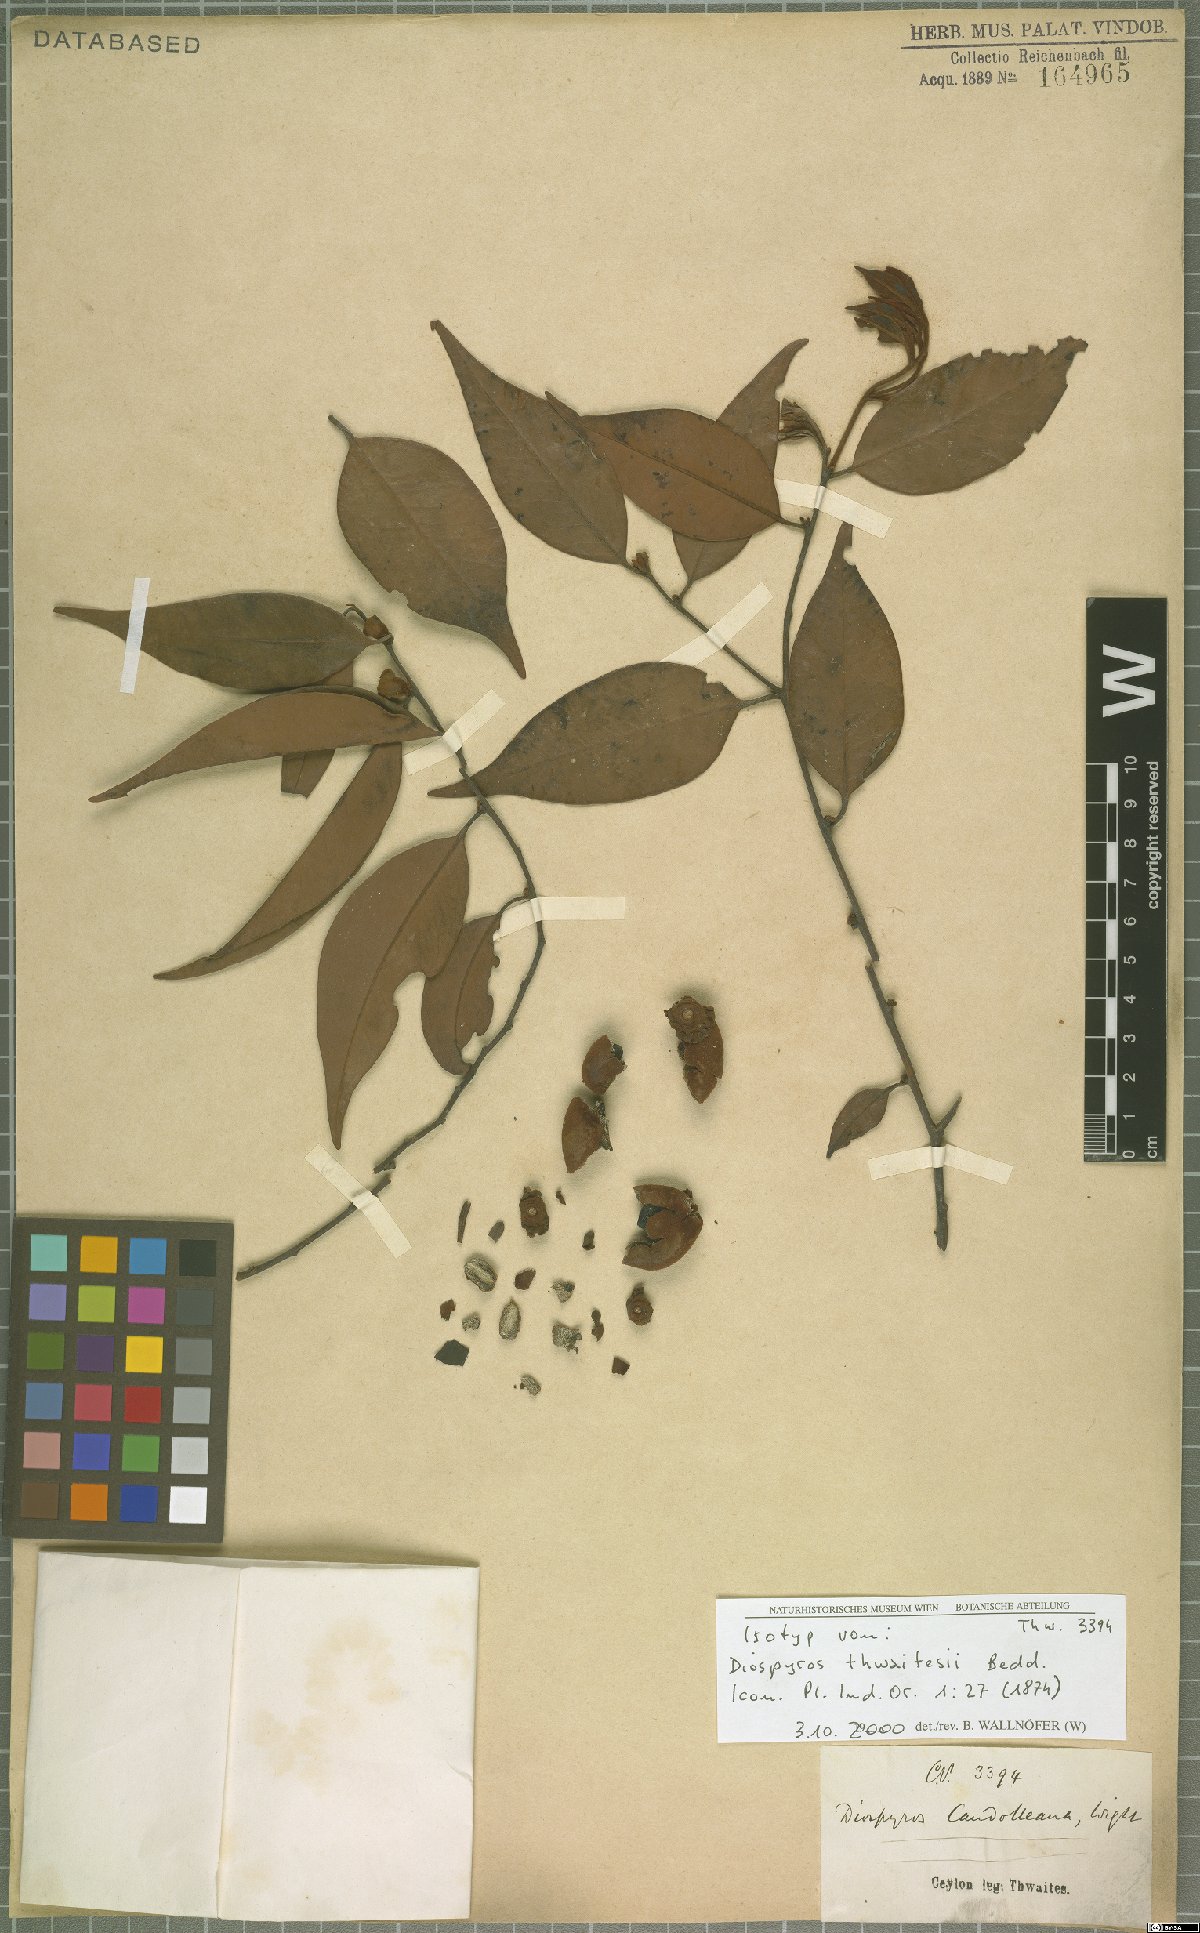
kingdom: Plantae
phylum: Tracheophyta
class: Magnoliopsida
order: Ericales
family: Ebenaceae
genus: Diospyros
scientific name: Diospyros thwaitesii
